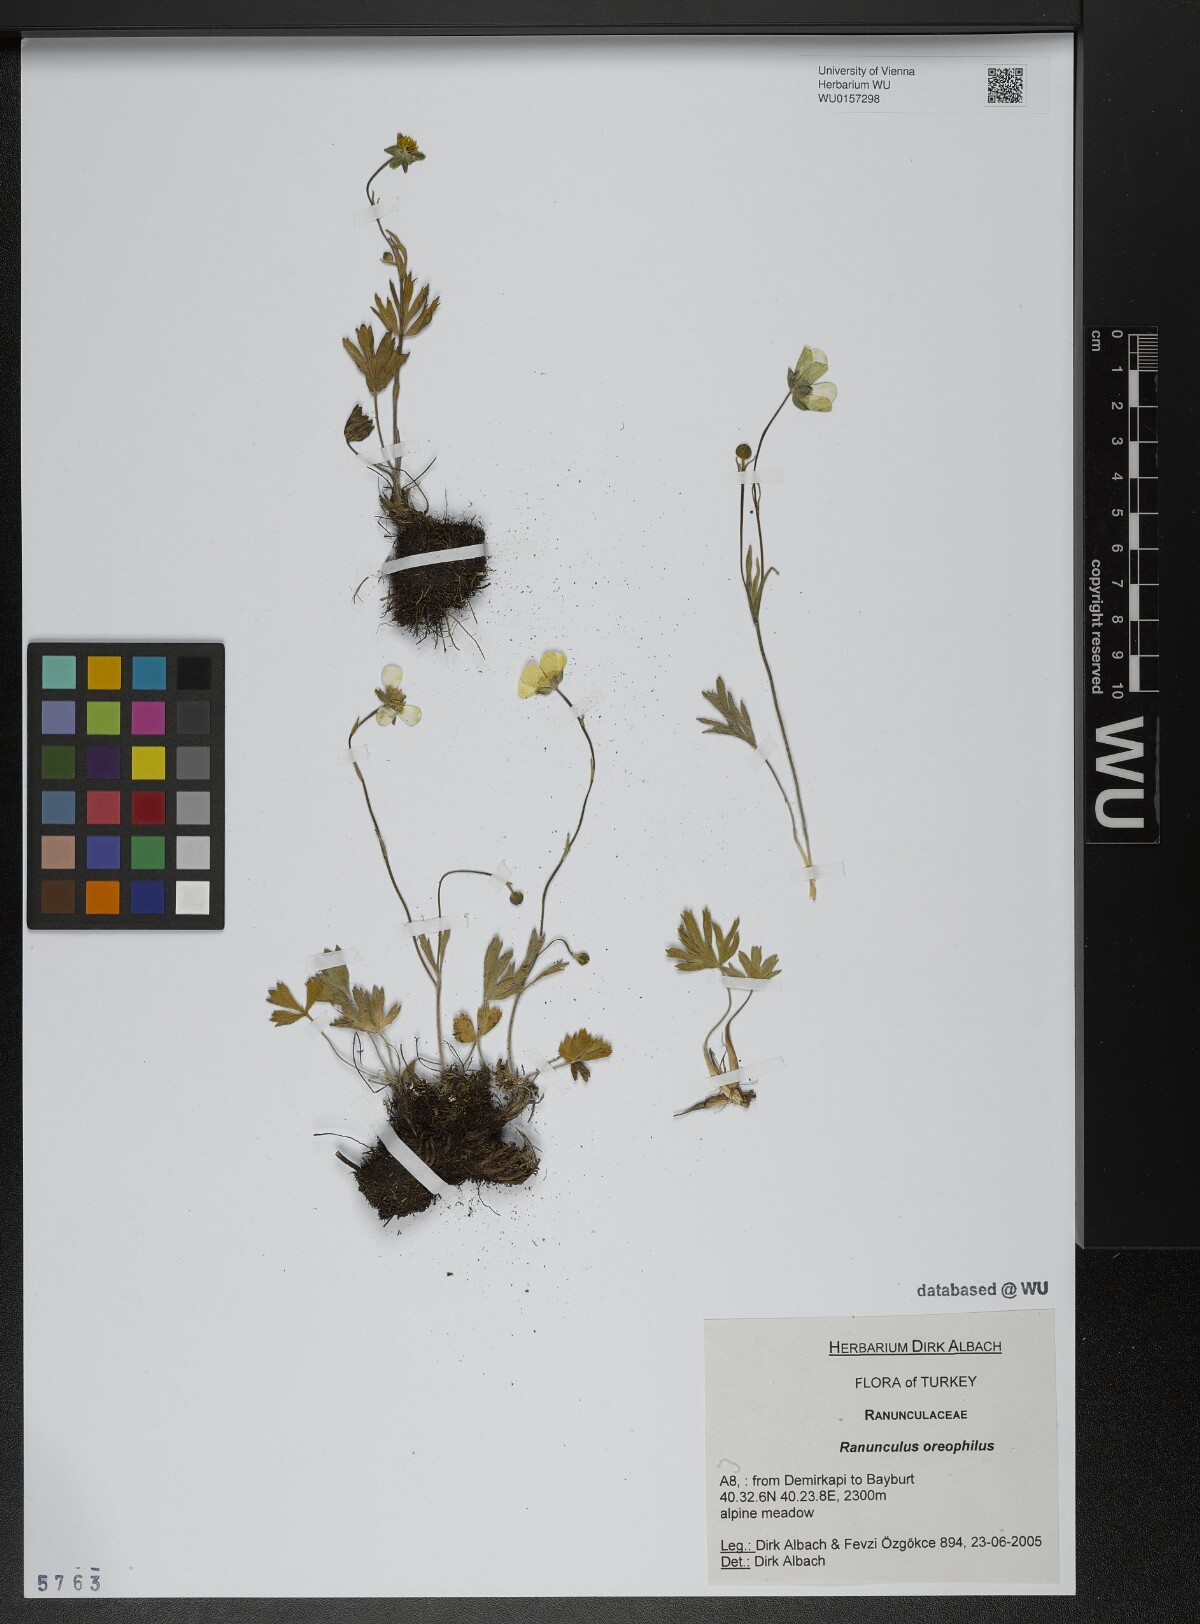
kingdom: Plantae
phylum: Tracheophyta
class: Magnoliopsida
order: Ranunculales
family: Ranunculaceae
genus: Ranunculus
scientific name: Ranunculus breyninus
